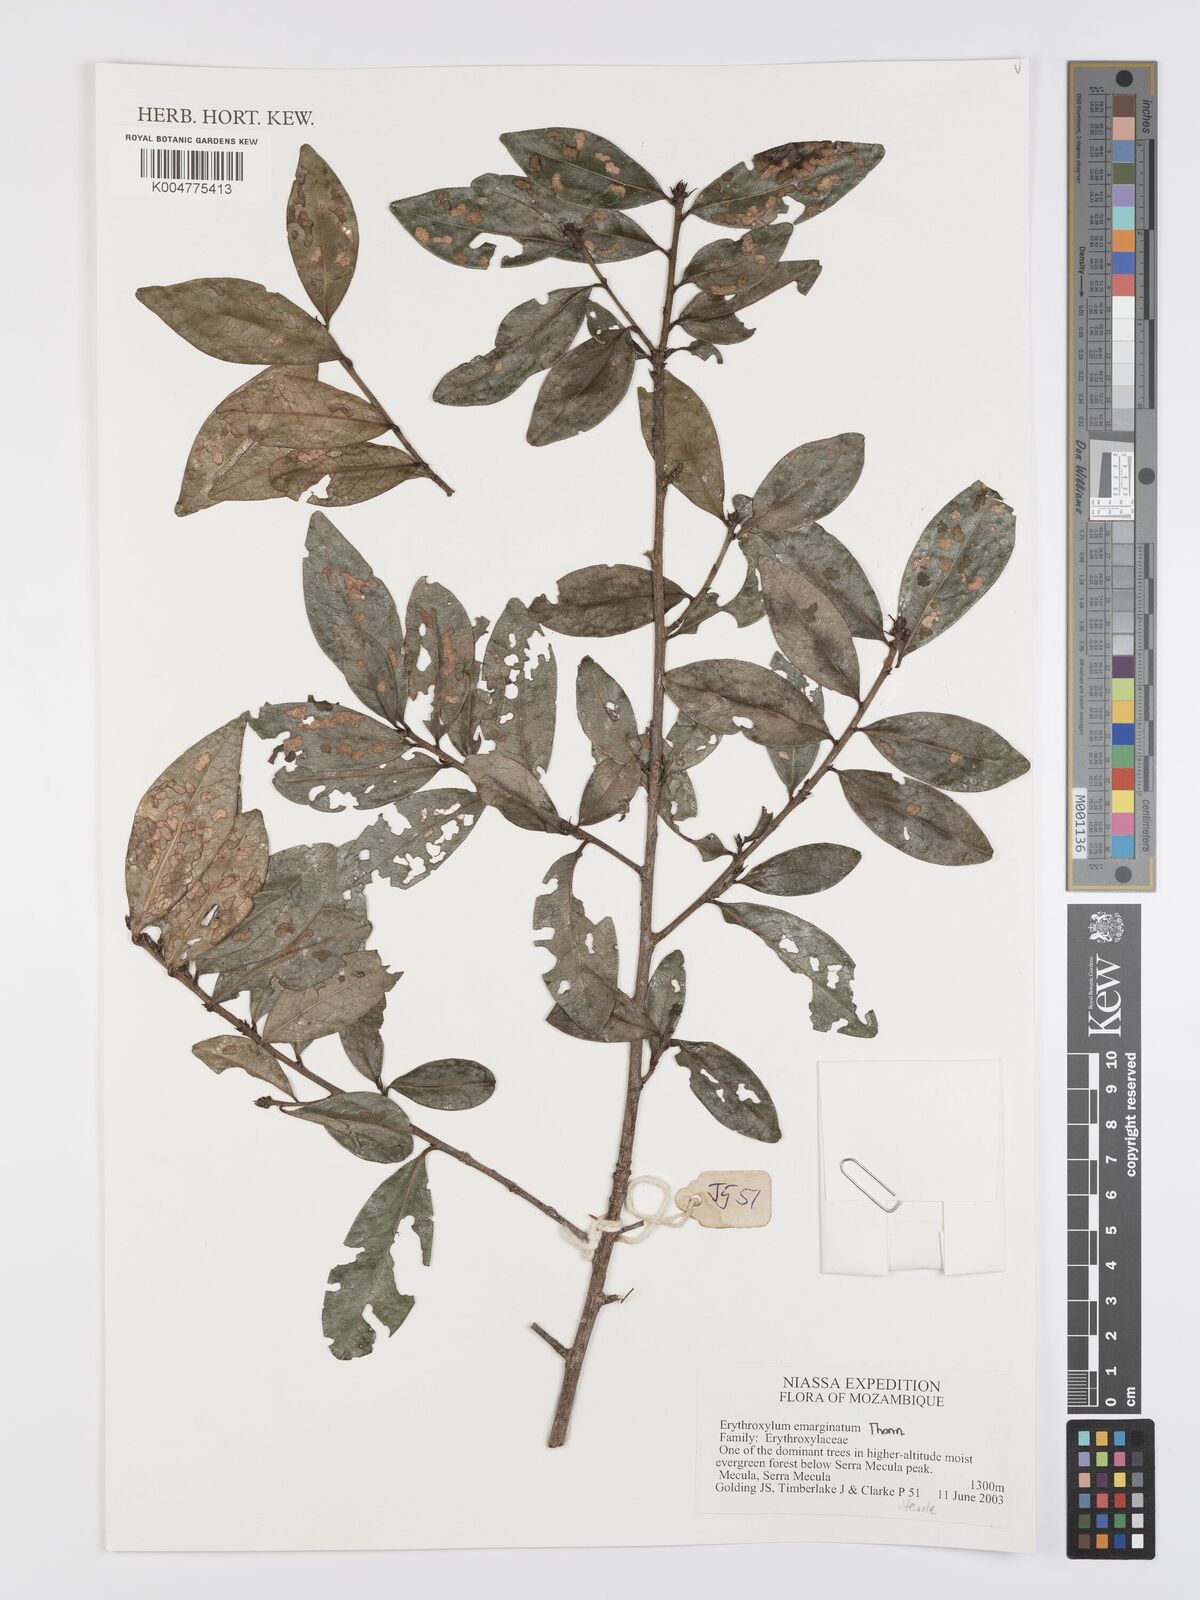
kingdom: Plantae
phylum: Tracheophyta
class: Magnoliopsida
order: Malpighiales
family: Erythroxylaceae
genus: Erythroxylum
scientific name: Erythroxylum emarginatum
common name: African coca-tree
